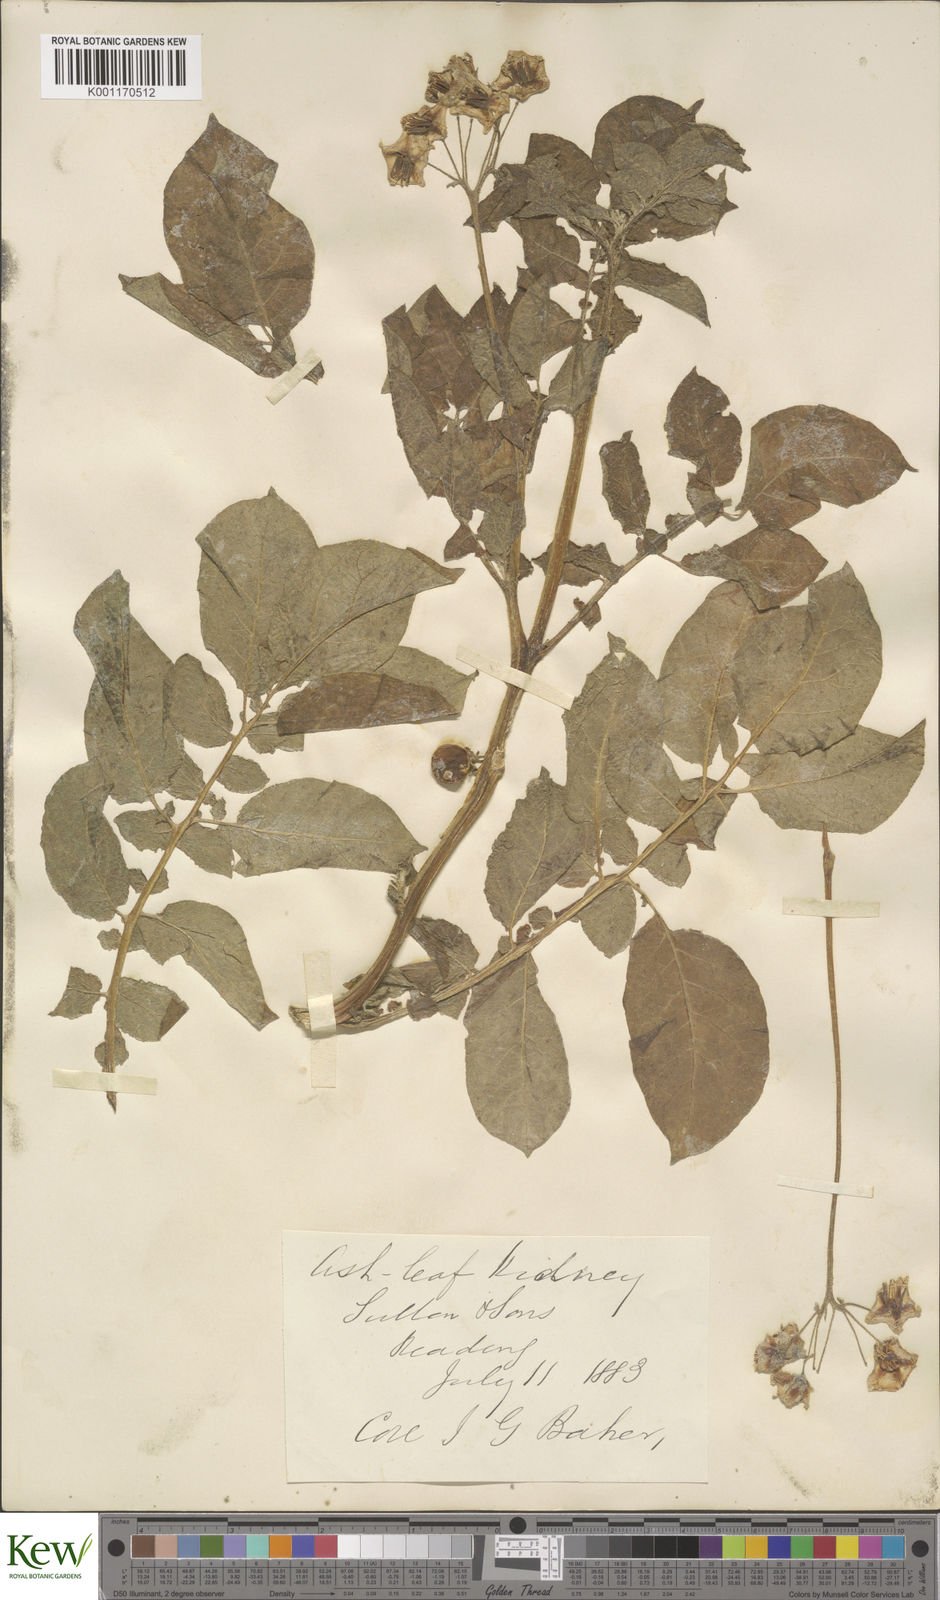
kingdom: Plantae
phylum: Tracheophyta
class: Magnoliopsida
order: Solanales
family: Solanaceae
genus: Solanum
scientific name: Solanum tuberosum
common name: Potato
